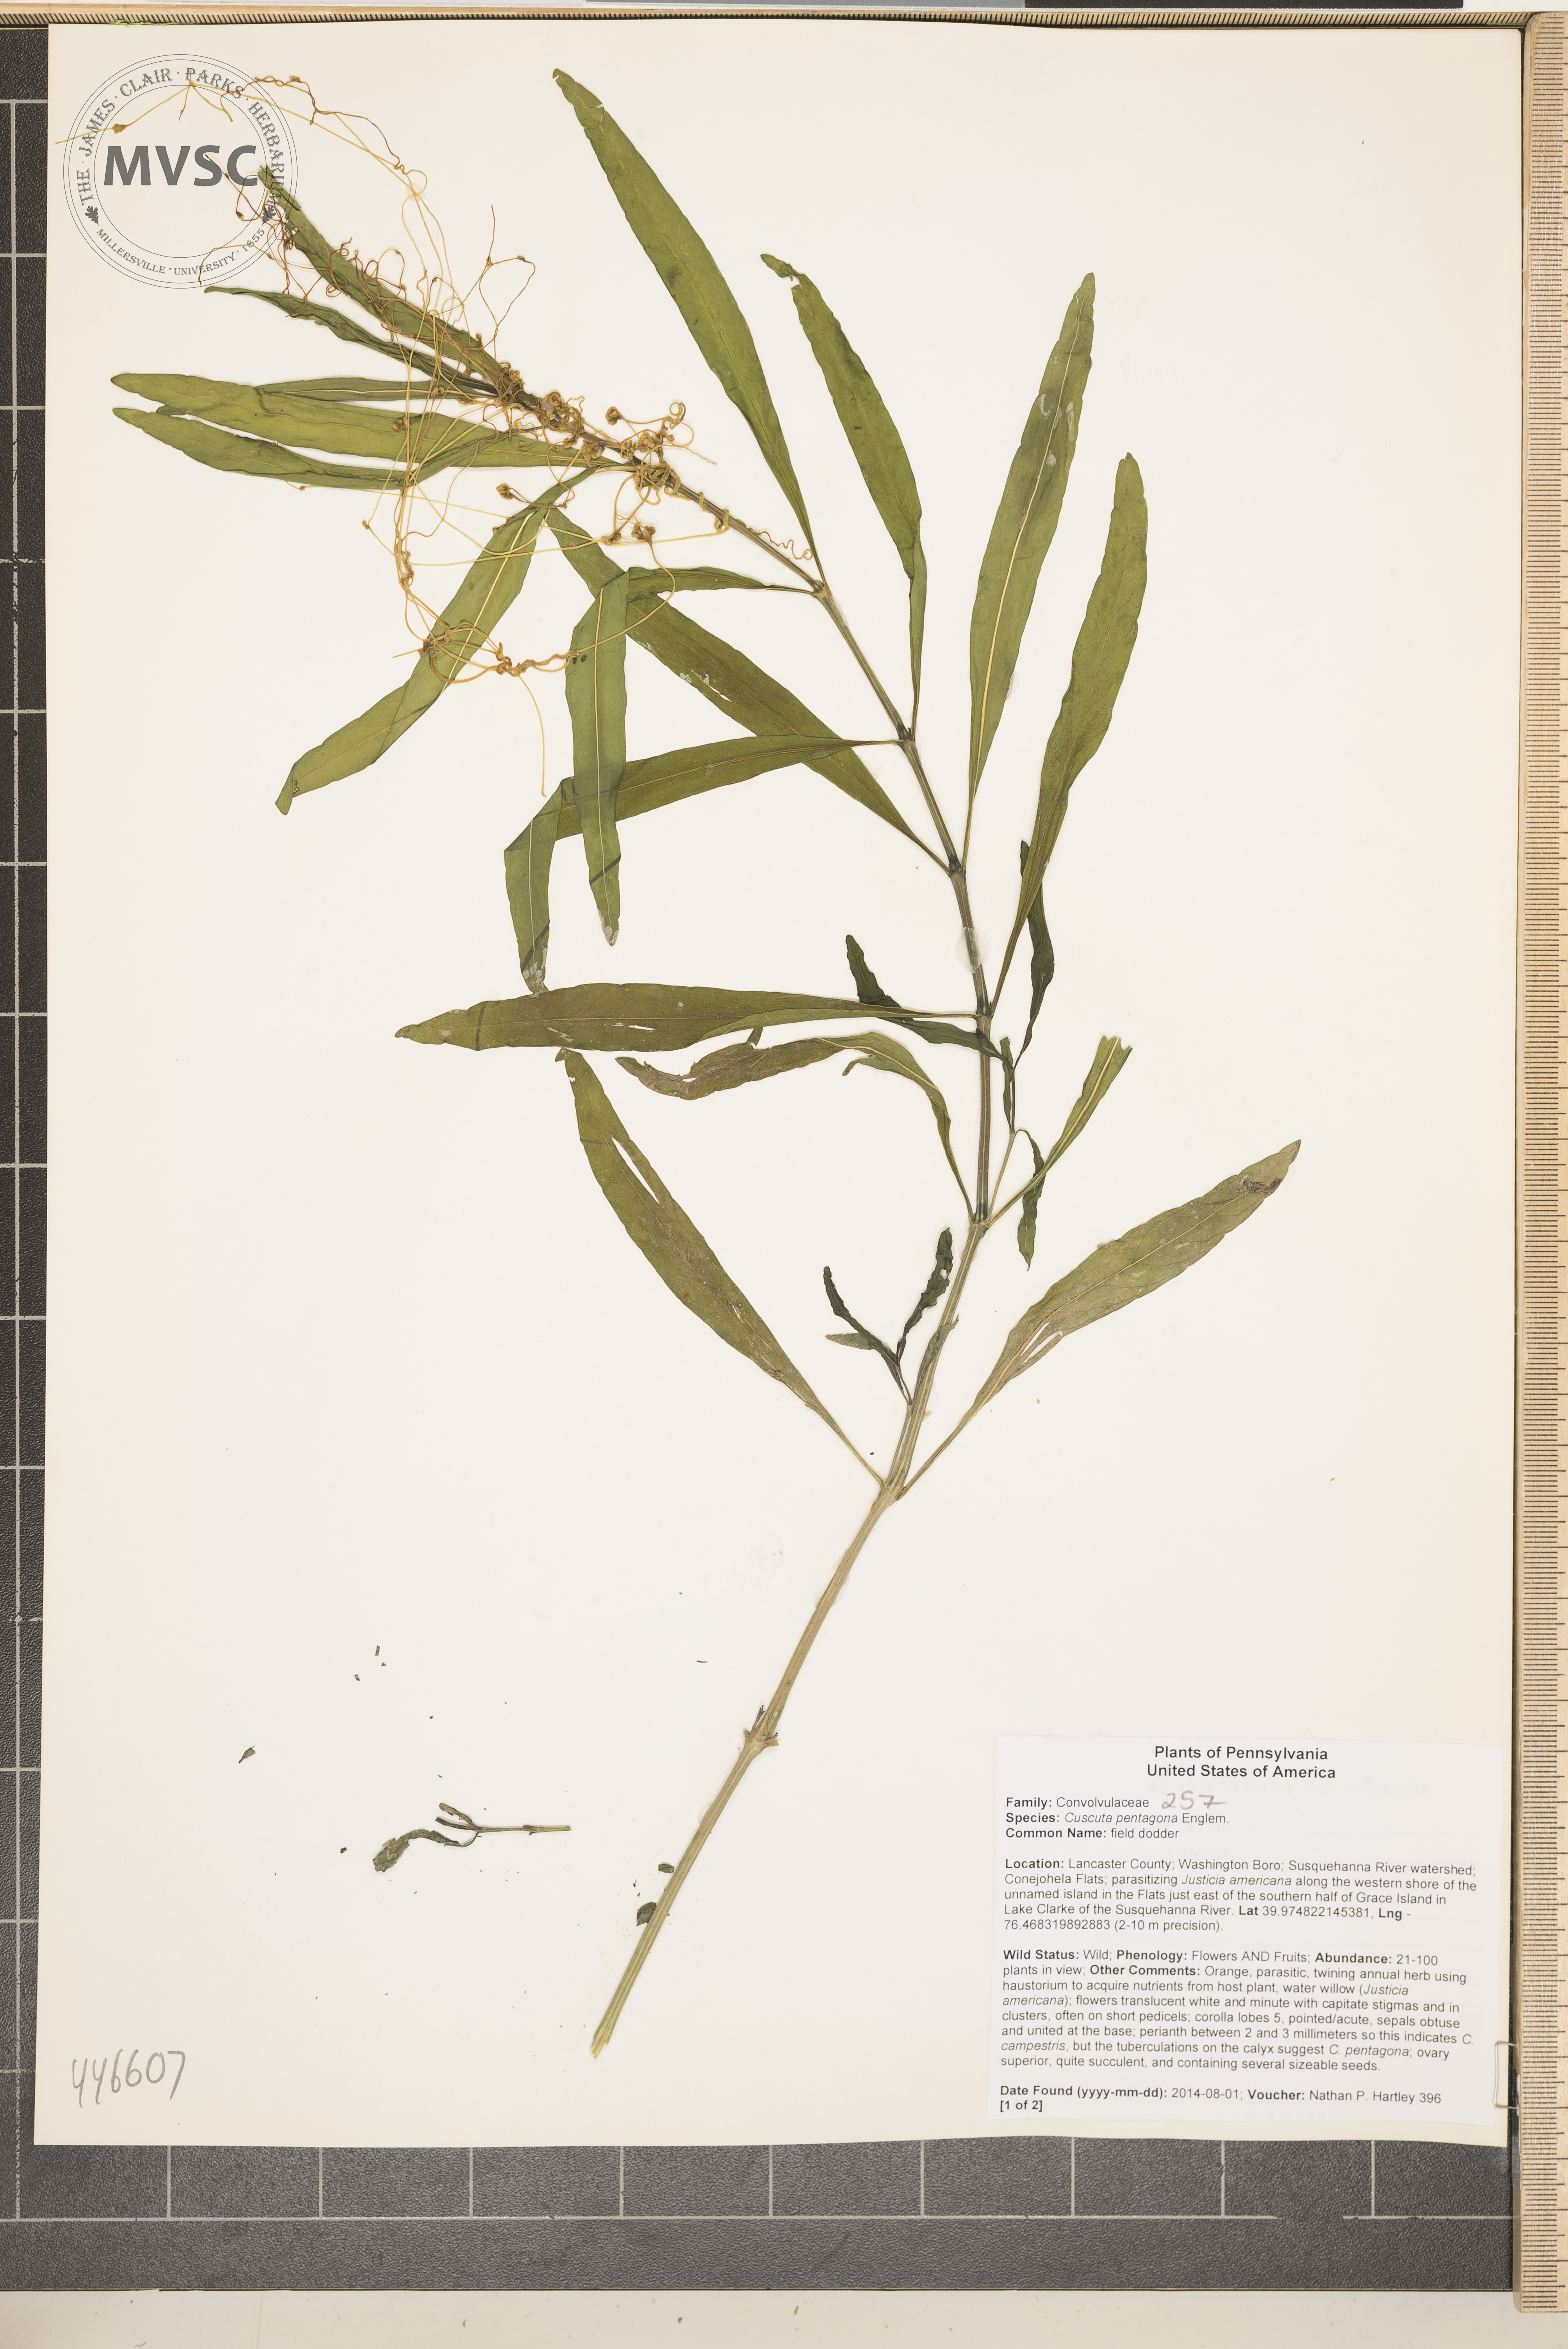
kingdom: Plantae
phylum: Tracheophyta
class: Magnoliopsida
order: Solanales
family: Convolvulaceae
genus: Cuscuta
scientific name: Cuscuta pentagona
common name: field dodder
